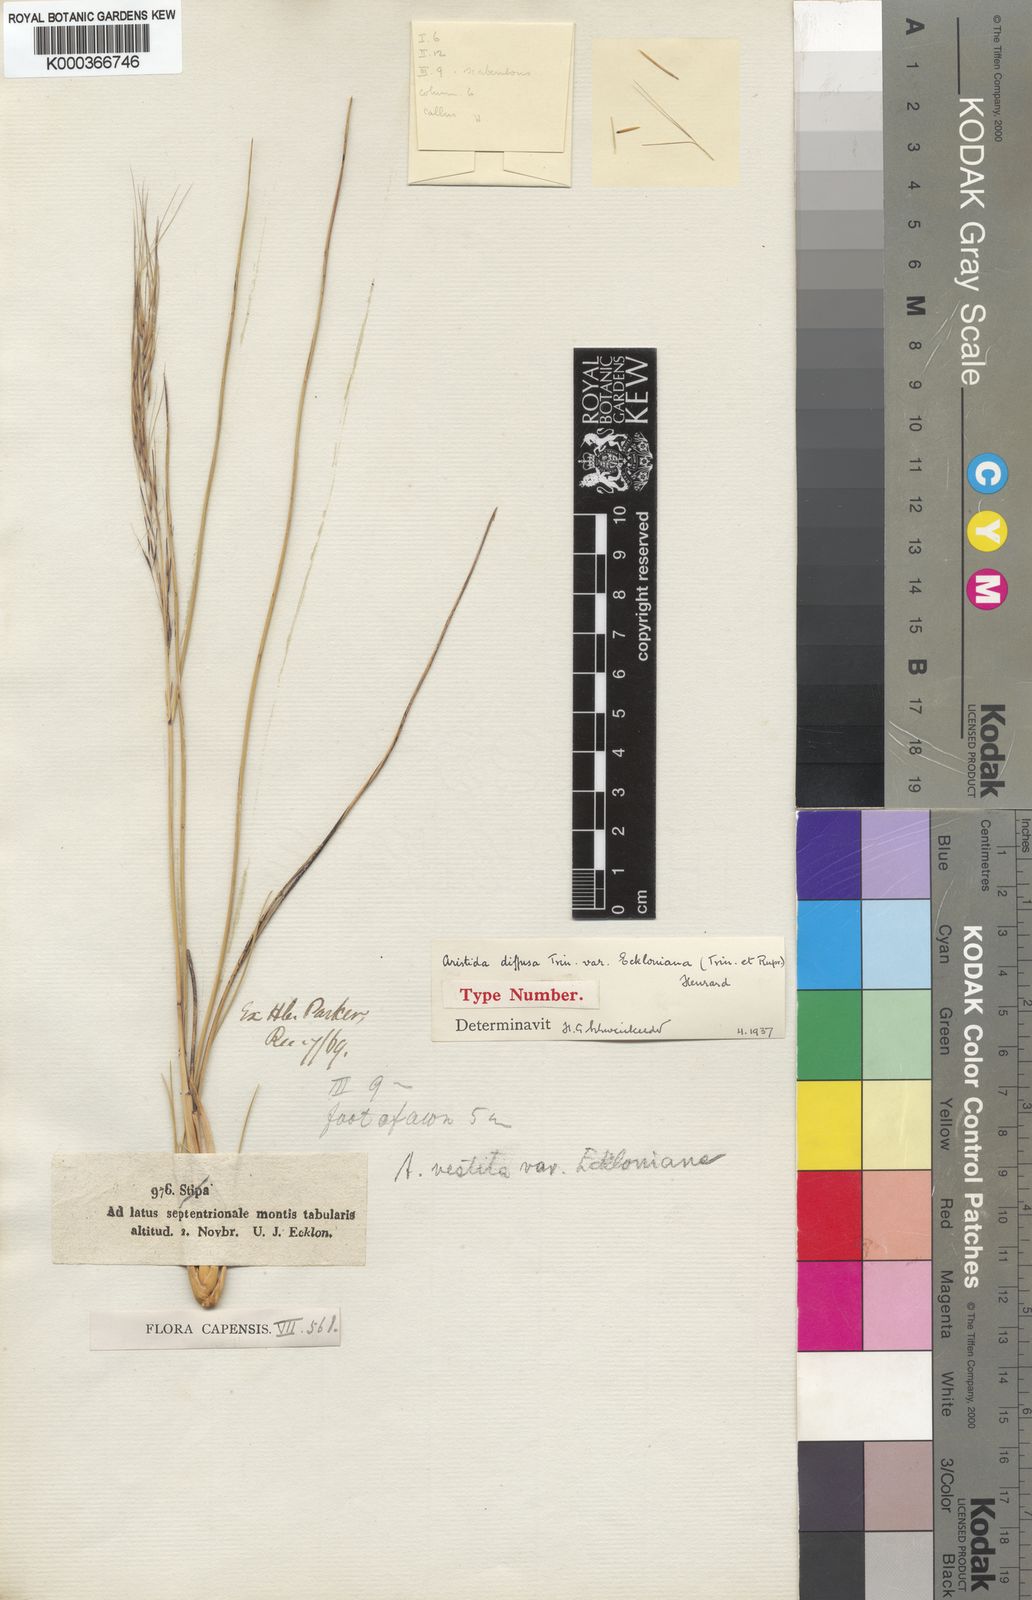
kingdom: Plantae
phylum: Tracheophyta
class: Liliopsida
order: Poales
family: Poaceae
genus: Aristida
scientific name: Aristida diffusa
